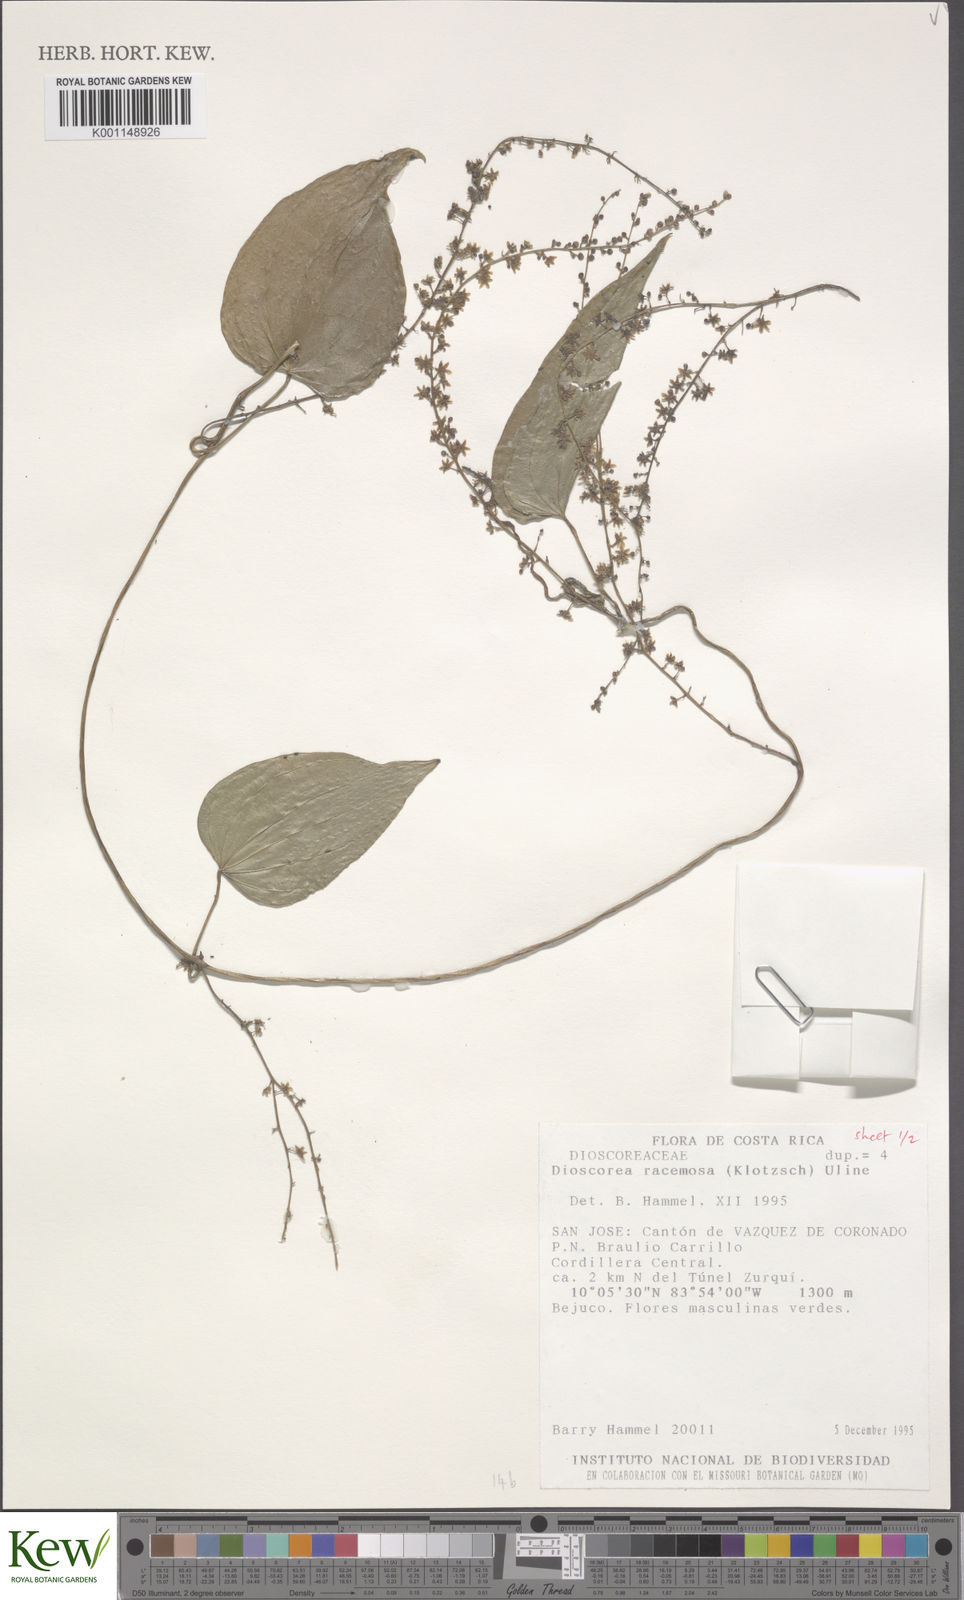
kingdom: Plantae
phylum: Tracheophyta
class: Liliopsida
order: Dioscoreales
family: Dioscoreaceae
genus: Dioscorea
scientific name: Dioscorea
